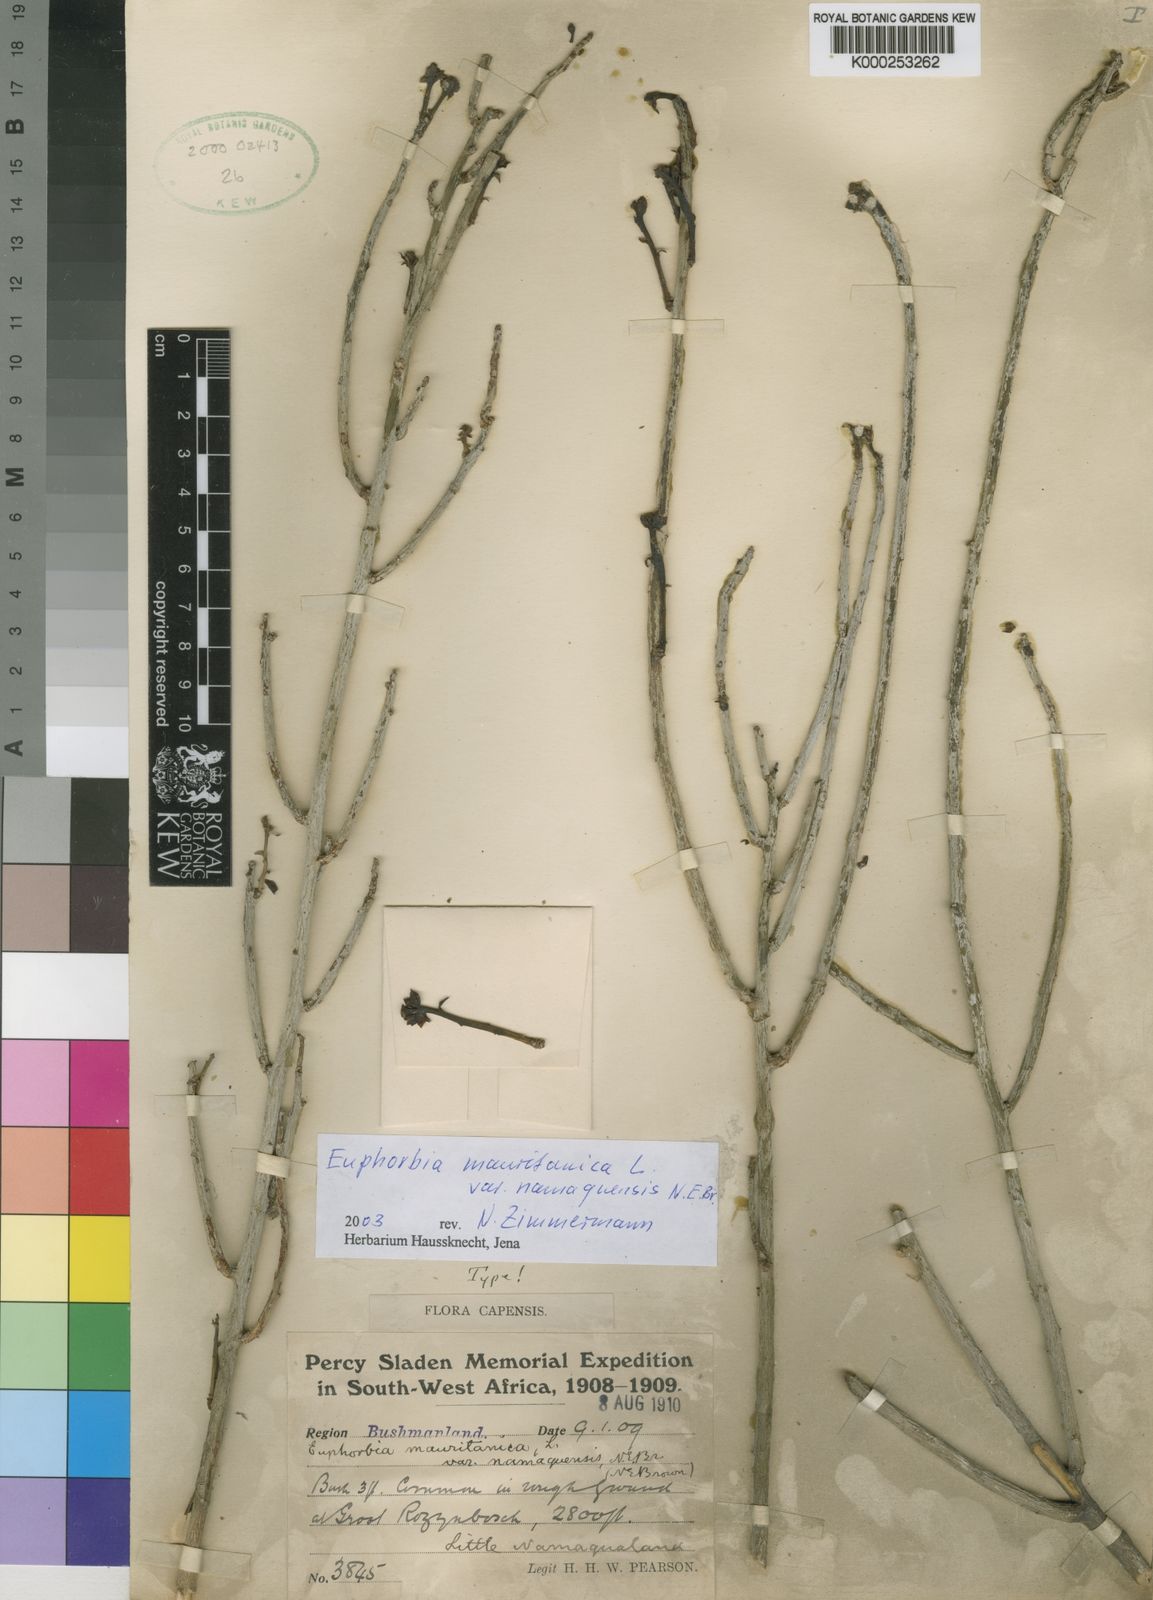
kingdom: Plantae
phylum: Tracheophyta
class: Magnoliopsida
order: Malpighiales
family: Euphorbiaceae
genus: Euphorbia
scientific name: Euphorbia mauritanica
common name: Jackal's-food
